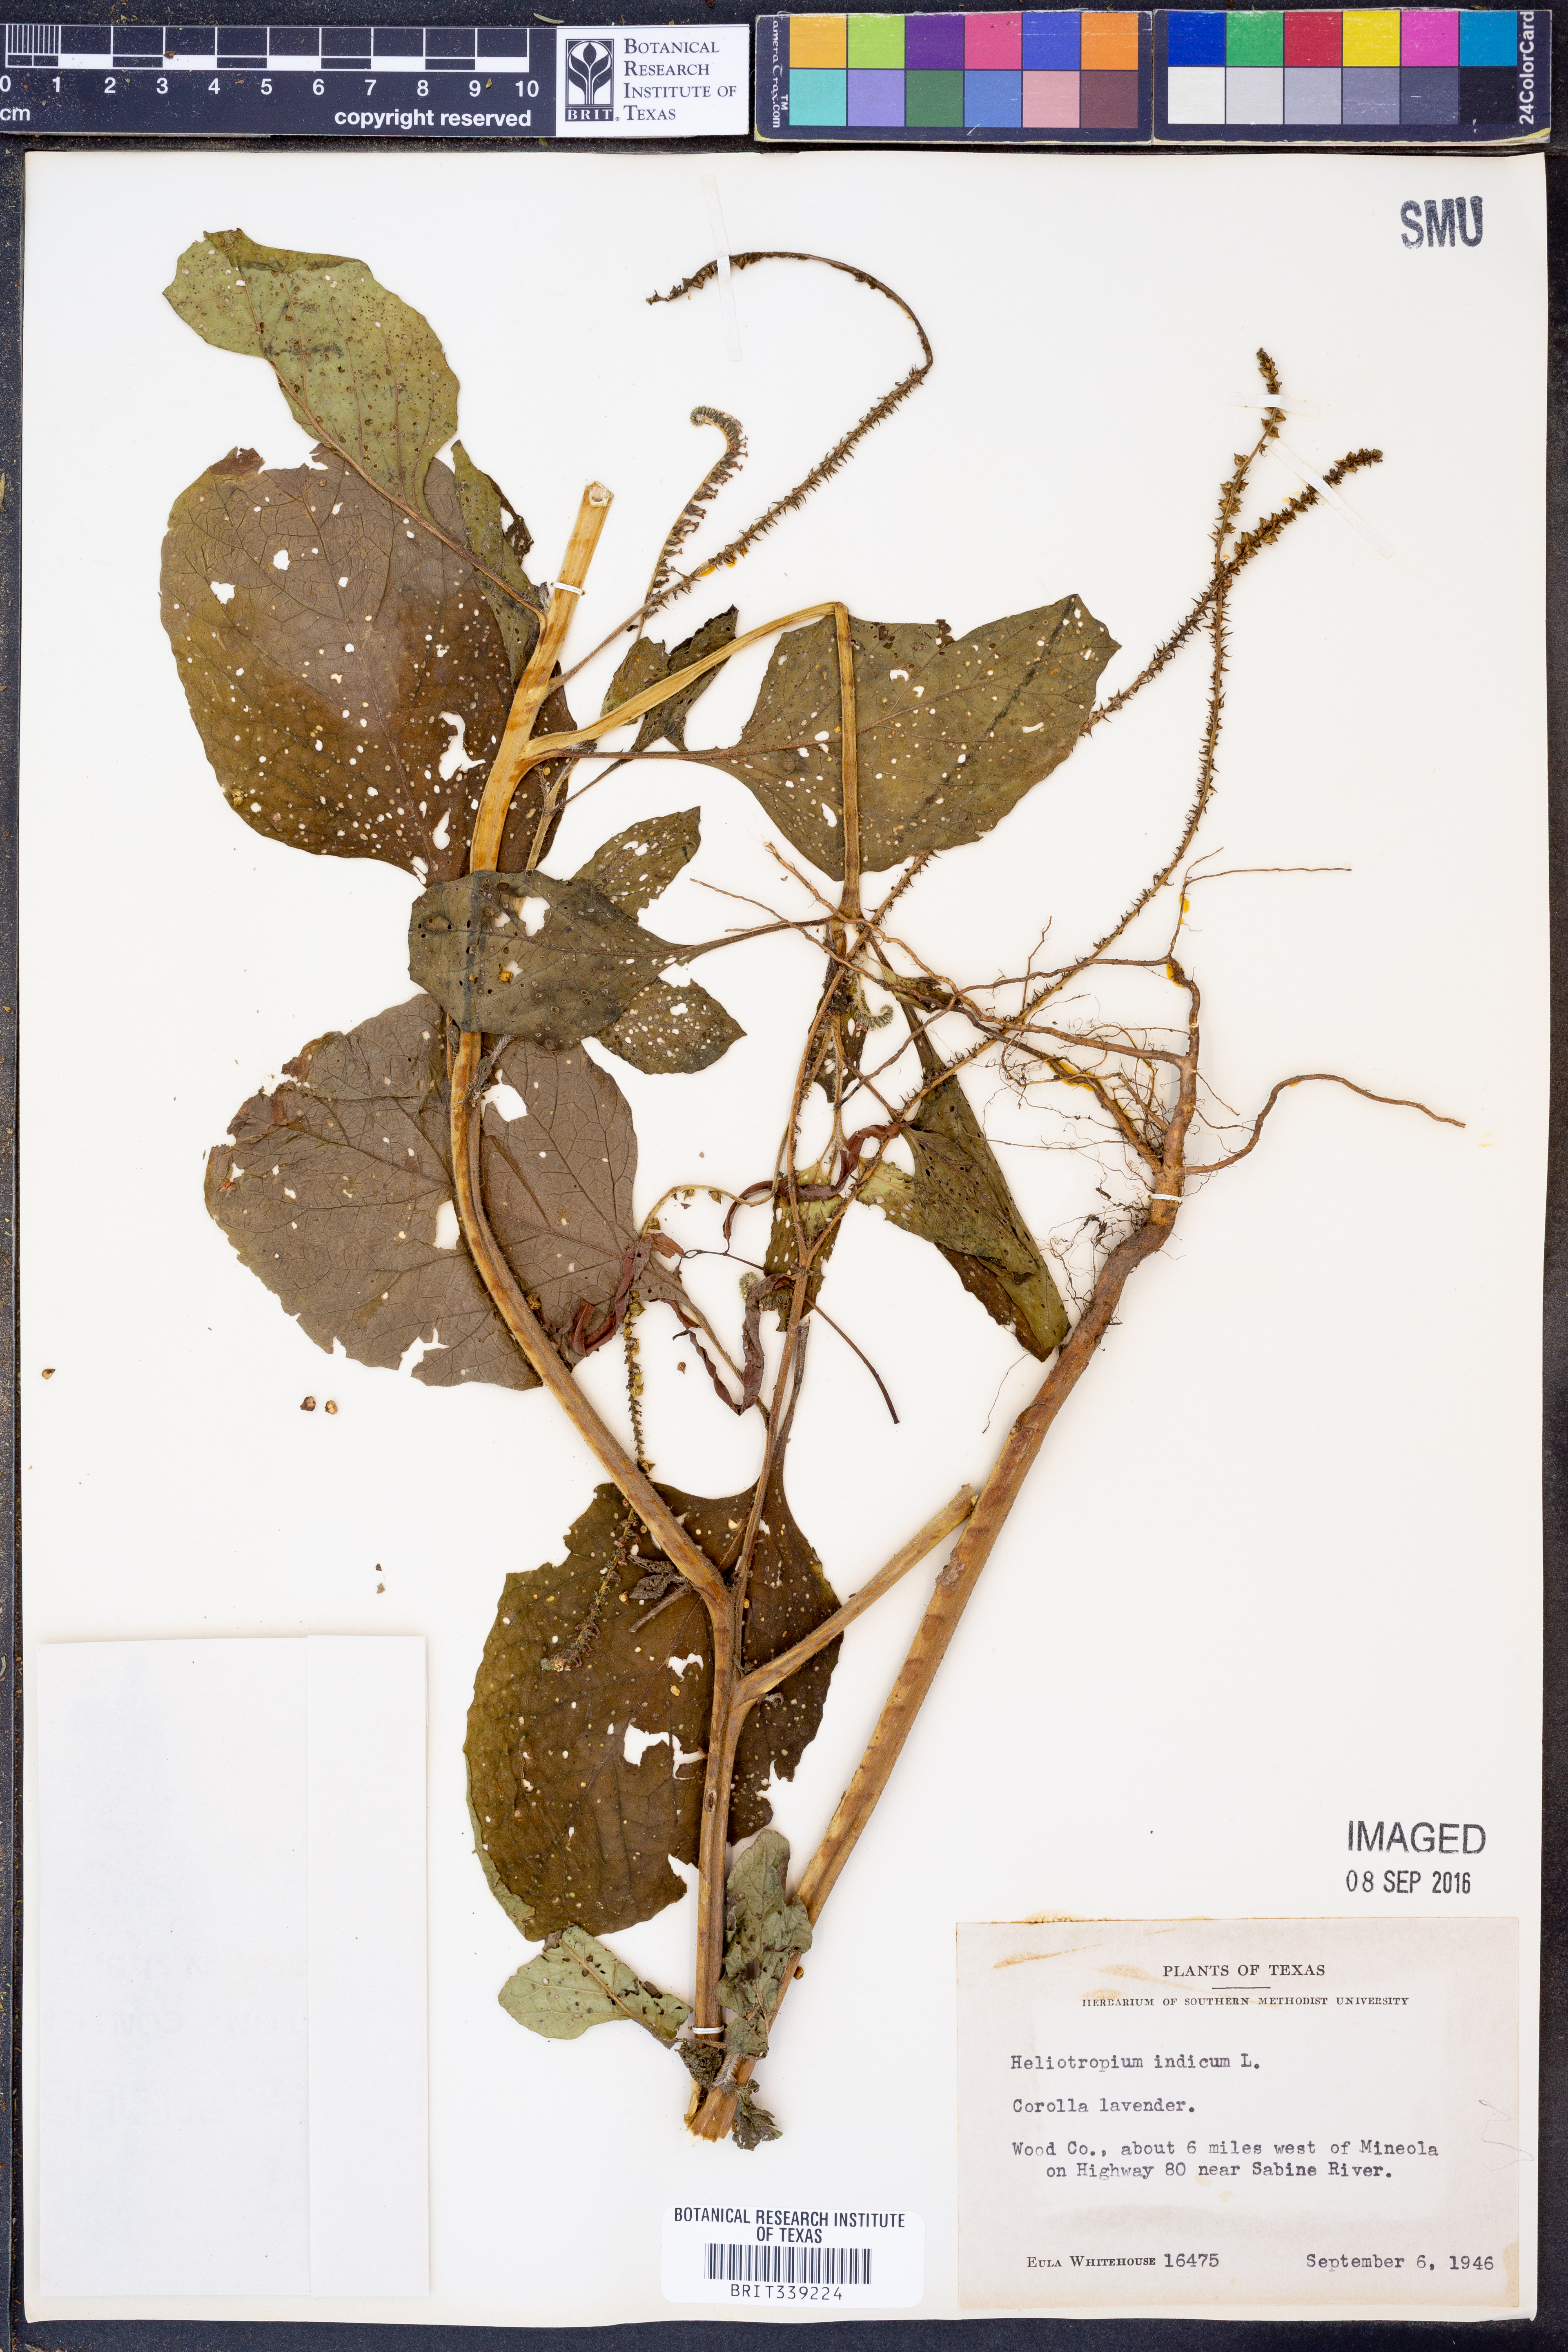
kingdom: Plantae
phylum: Tracheophyta
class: Magnoliopsida
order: Boraginales
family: Heliotropiaceae
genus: Heliotropium
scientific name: Heliotropium indicum
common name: Indian heliotrope
